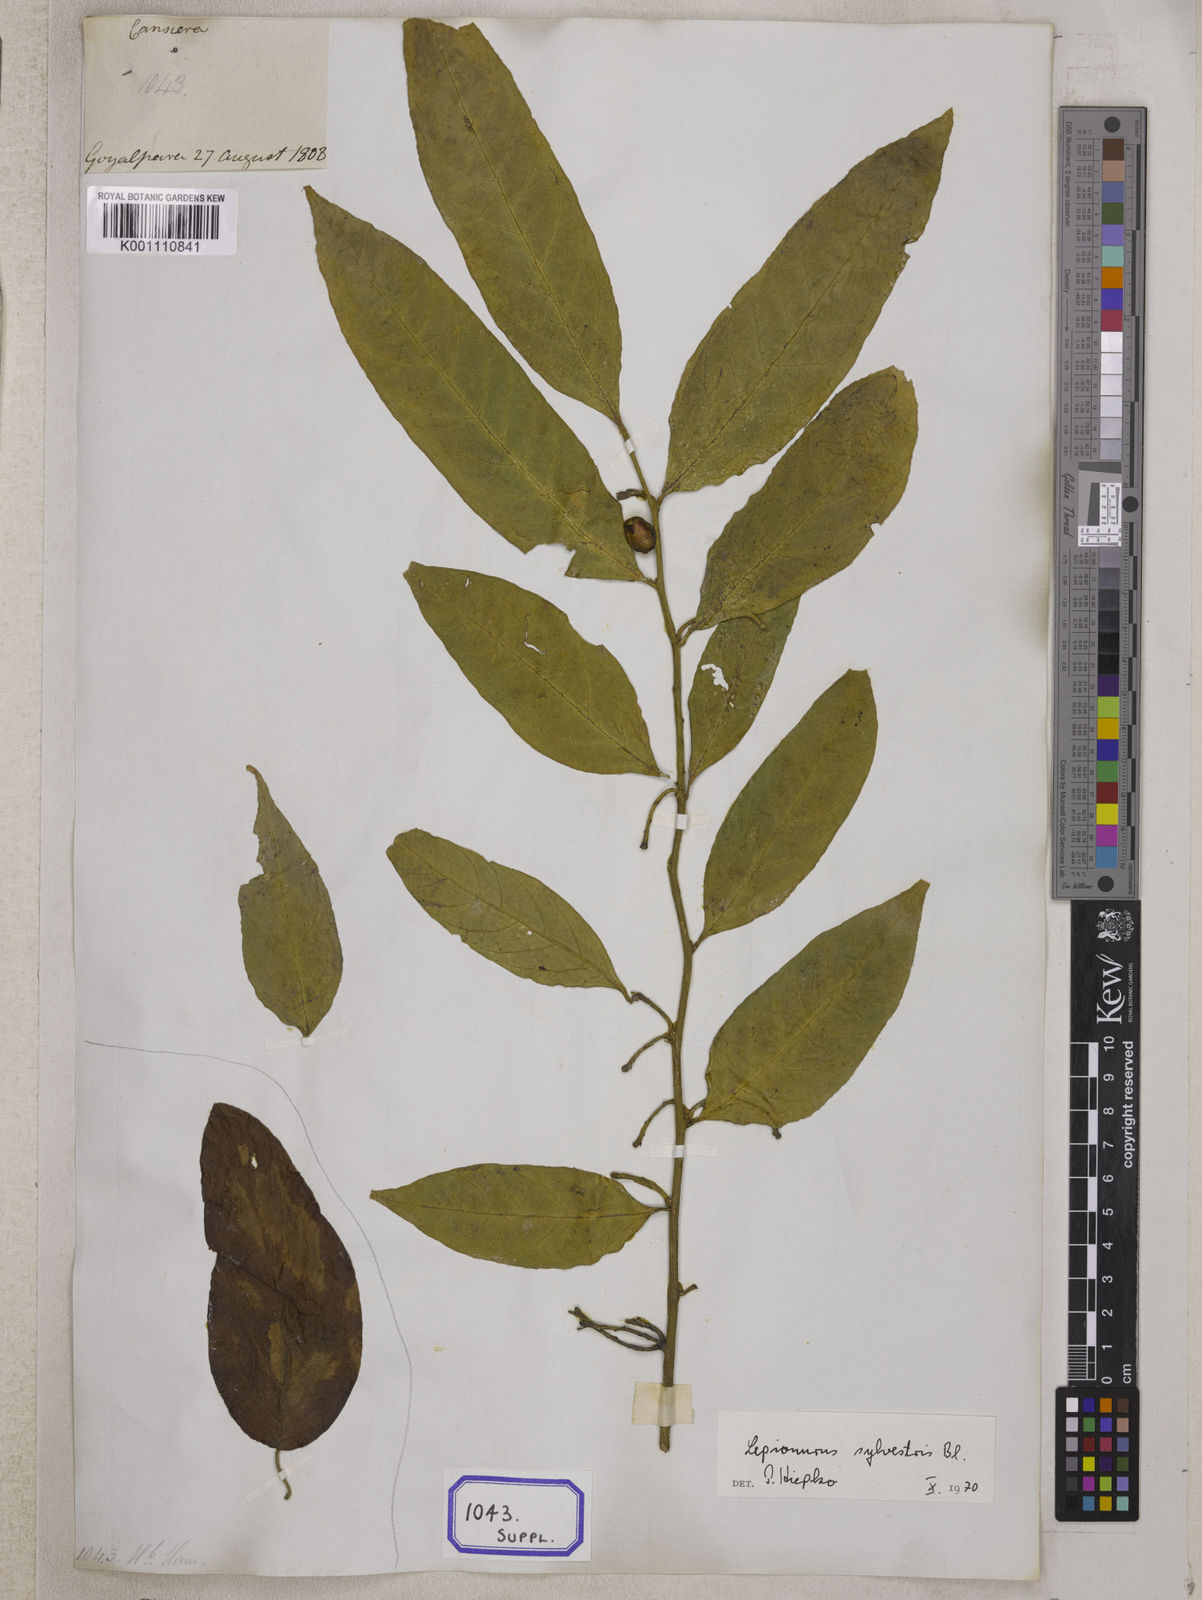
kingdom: Plantae
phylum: Tracheophyta
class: Magnoliopsida
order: Santalales
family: Opiliaceae
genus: Cansjera
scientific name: Cansjera rheedei
